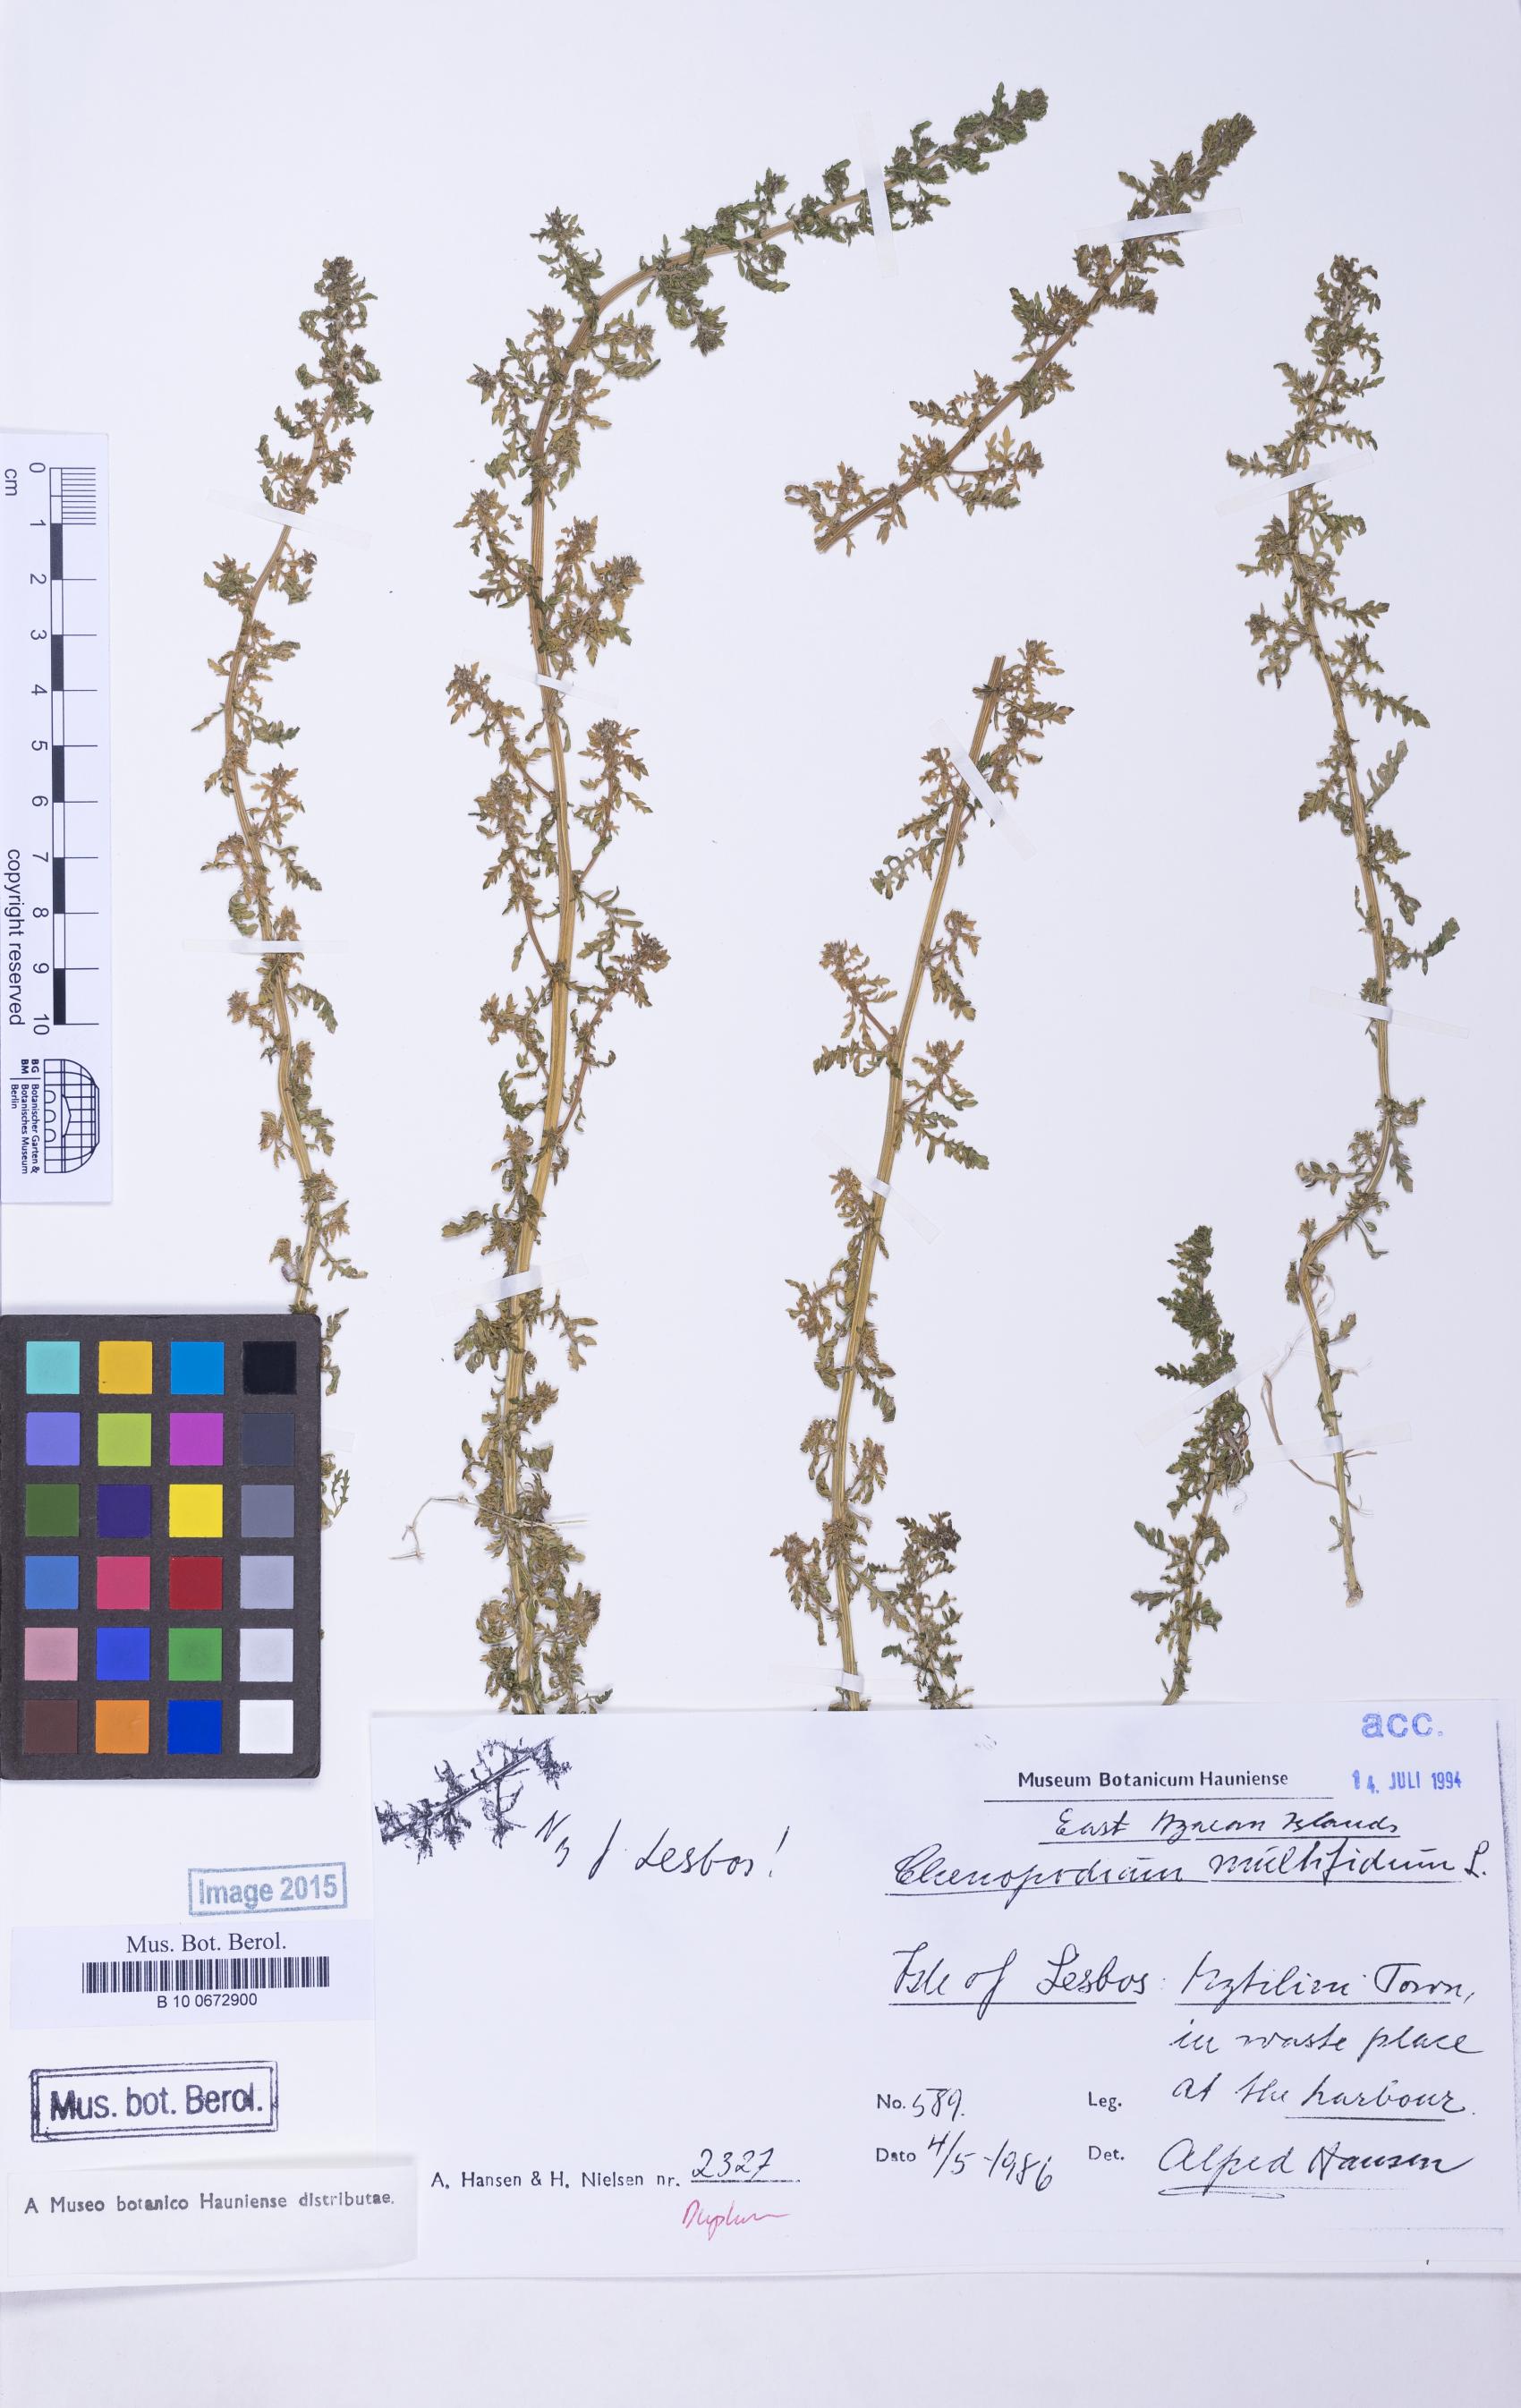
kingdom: Plantae
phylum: Tracheophyta
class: Magnoliopsida
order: Caryophyllales
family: Amaranthaceae
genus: Dysphania
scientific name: Dysphania multifida
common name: Cutleaf goosefoot
